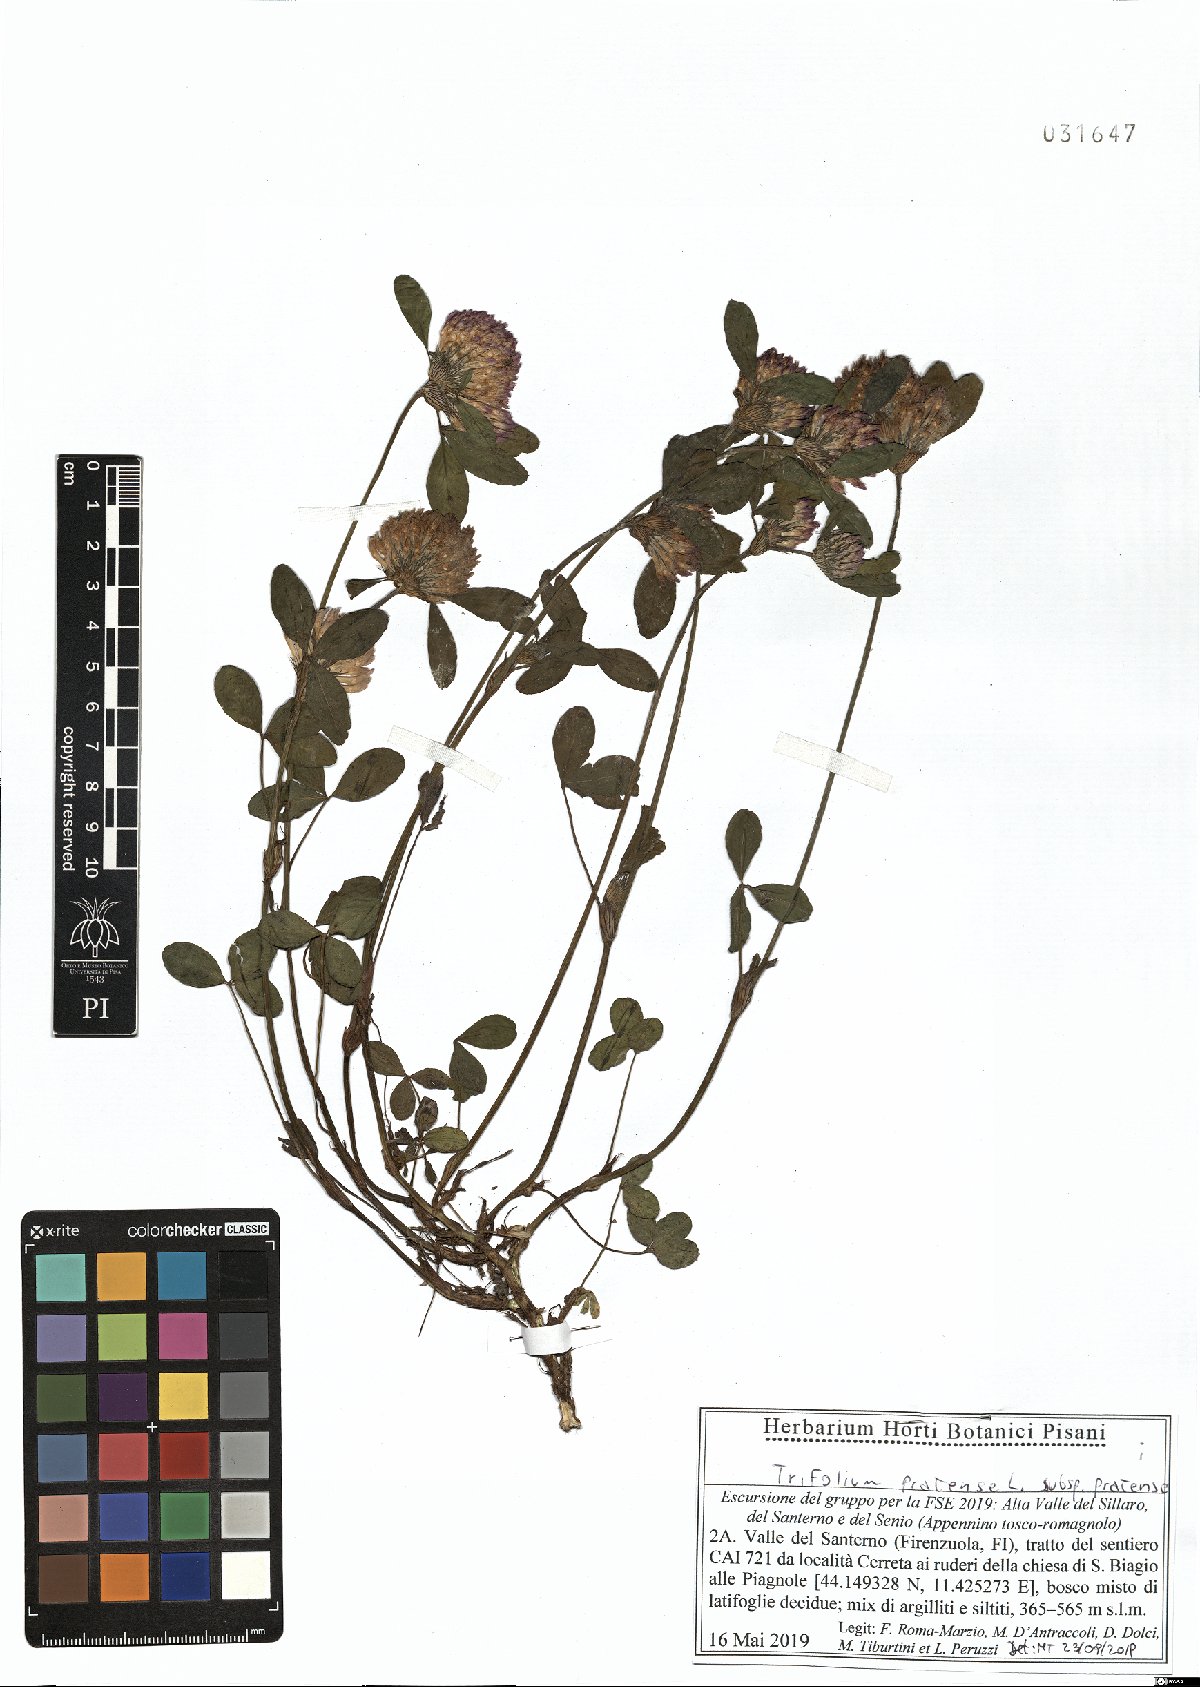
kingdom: Plantae
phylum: Tracheophyta
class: Magnoliopsida
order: Fabales
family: Fabaceae
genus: Trifolium
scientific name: Trifolium pratense
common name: Red clover
